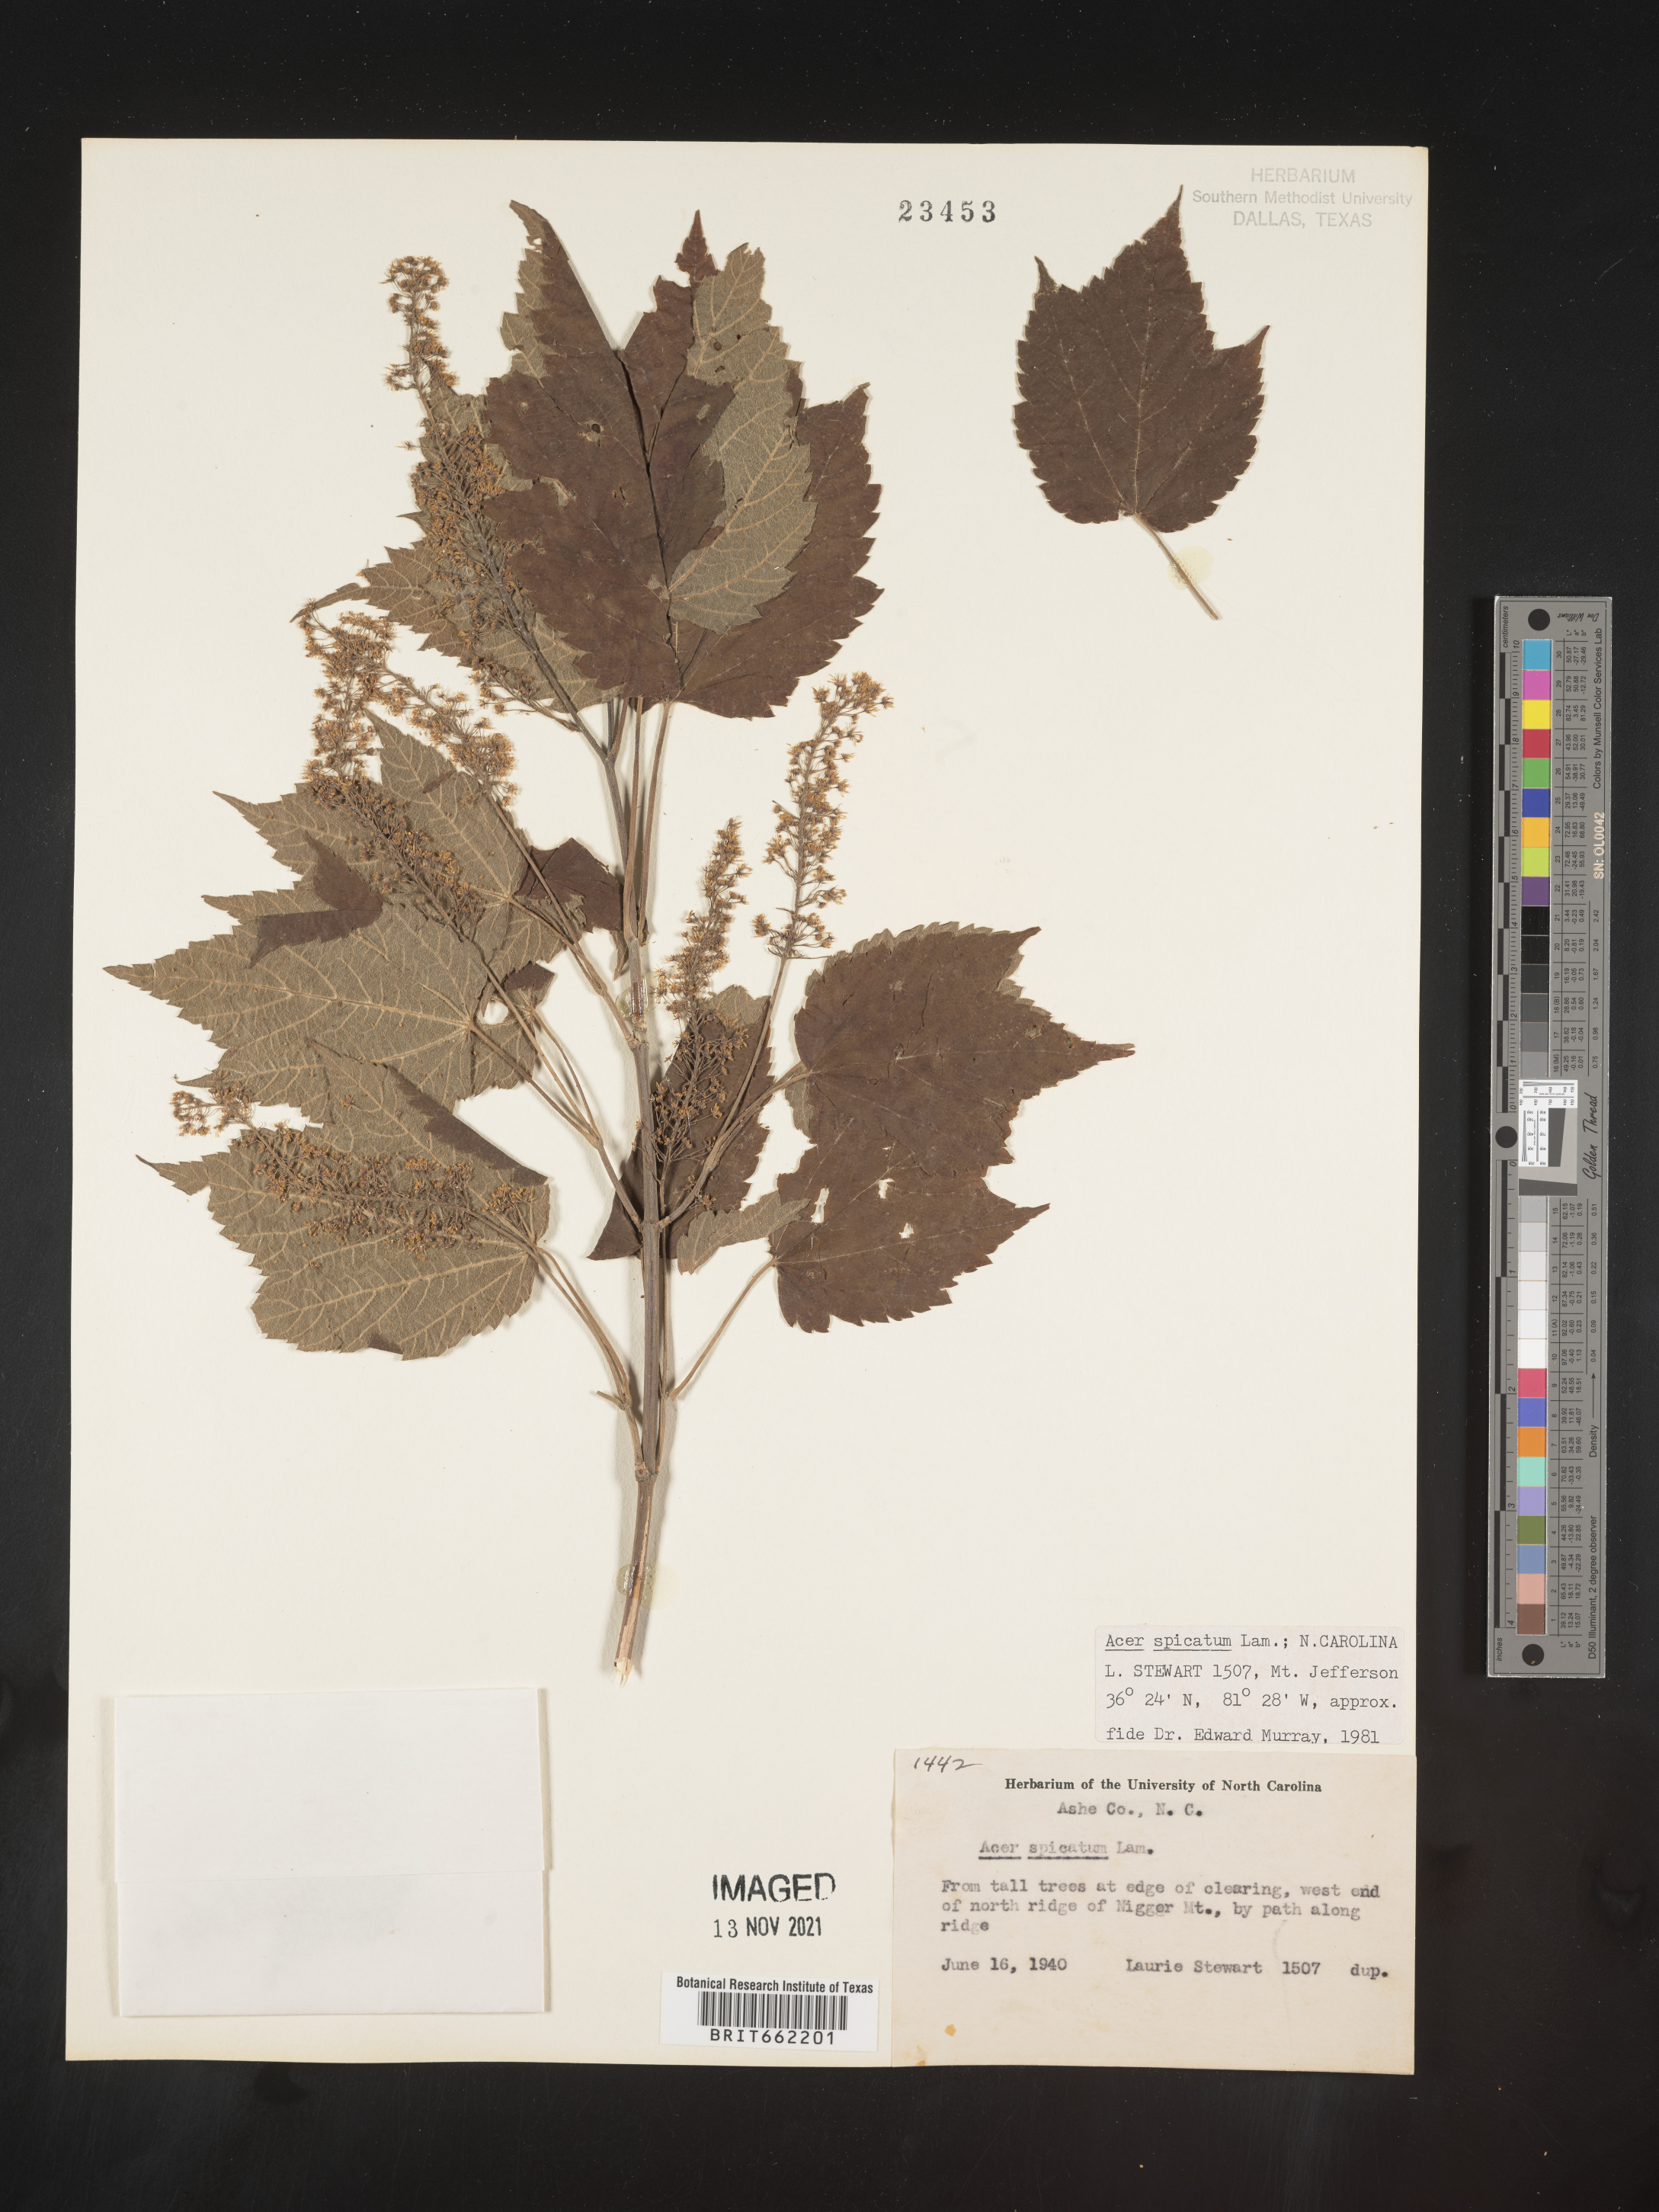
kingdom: Plantae
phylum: Tracheophyta
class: Magnoliopsida
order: Sapindales
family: Sapindaceae
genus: Acer
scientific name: Acer spicatum
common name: Mountain maple
